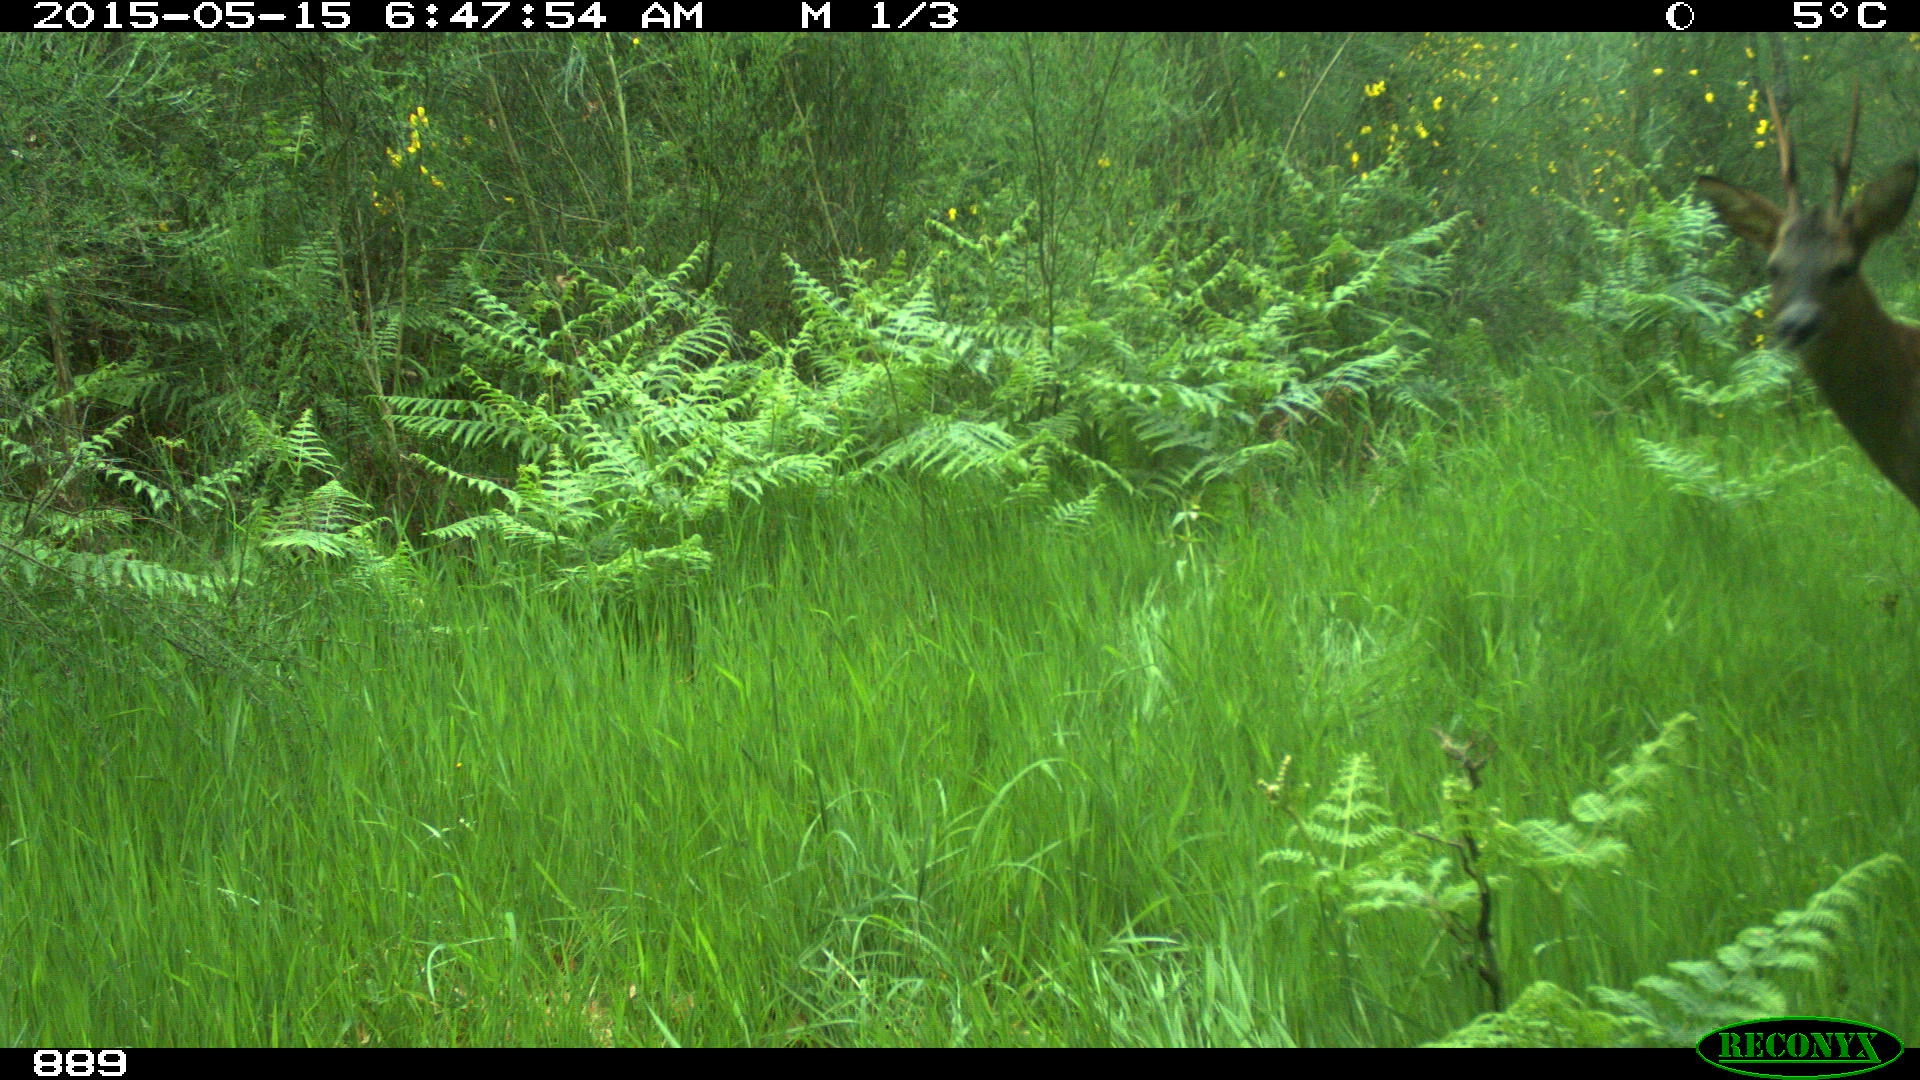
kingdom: Animalia
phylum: Chordata
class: Mammalia
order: Artiodactyla
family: Cervidae
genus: Capreolus
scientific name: Capreolus capreolus
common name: Western roe deer
